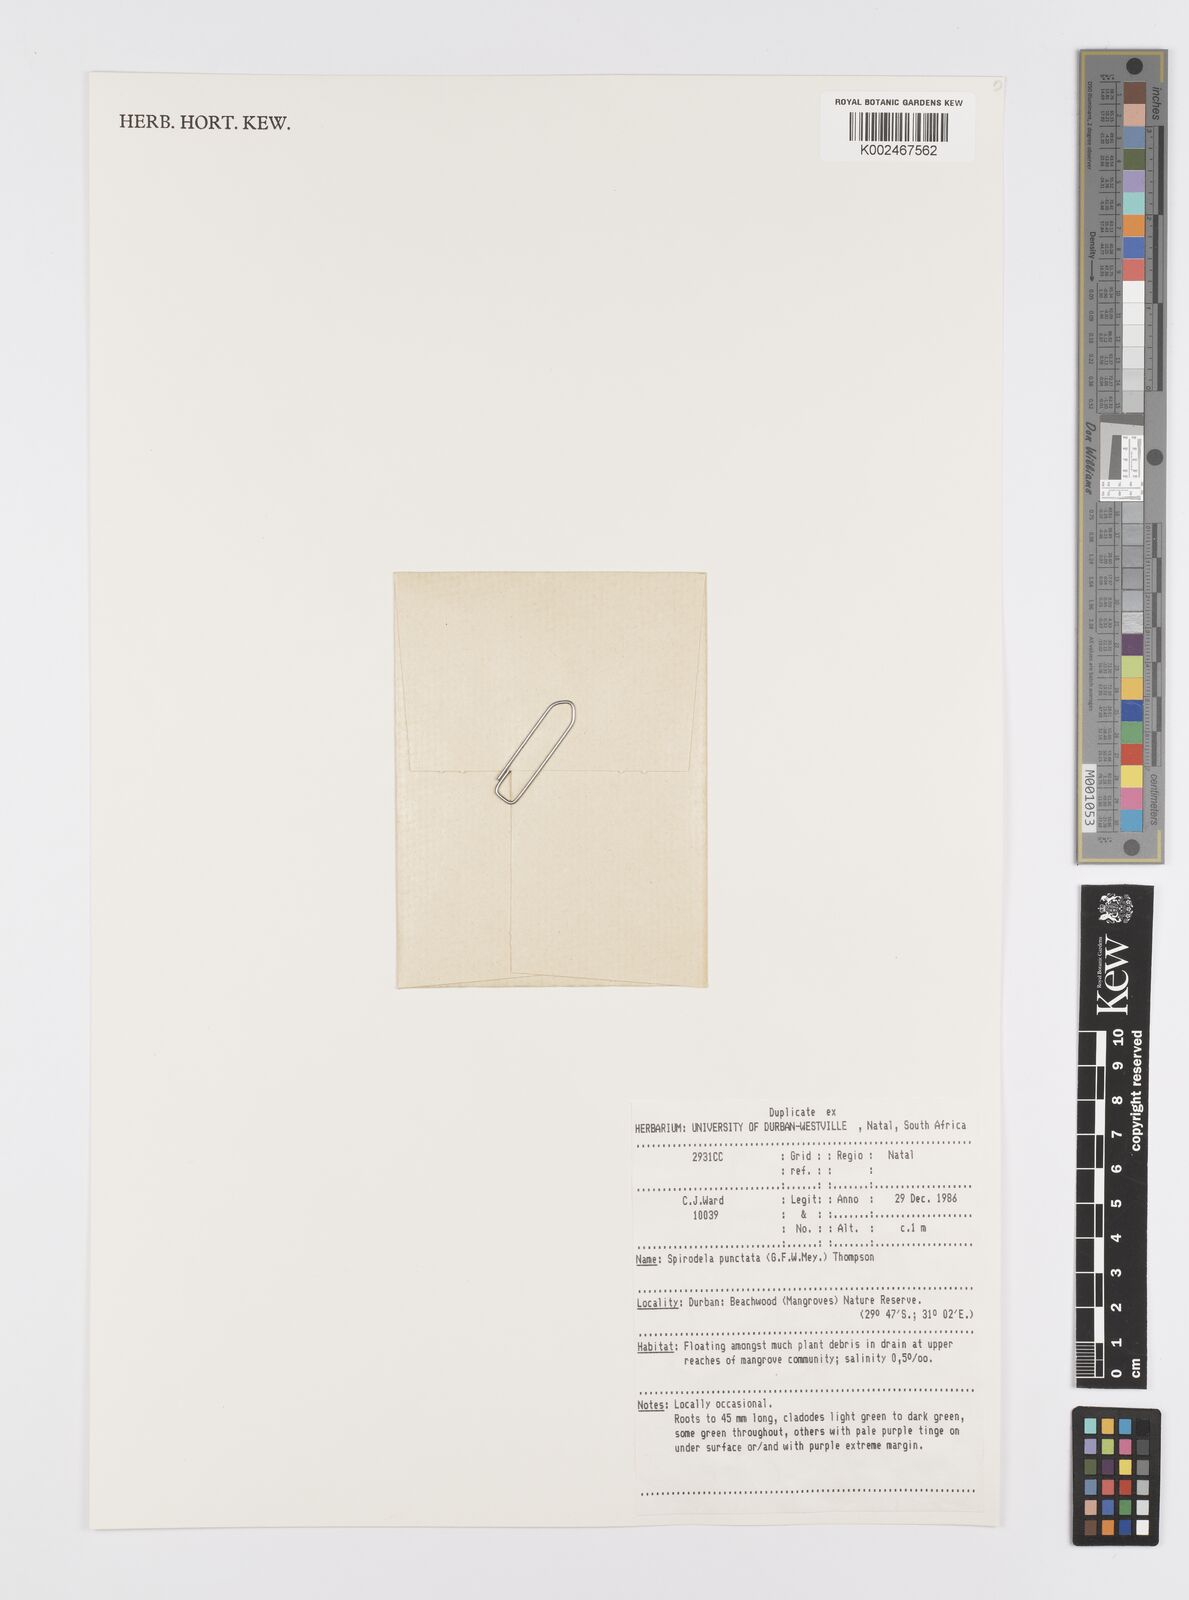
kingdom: Plantae
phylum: Tracheophyta
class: Liliopsida
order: Alismatales
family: Araceae
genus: Spirodela
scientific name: Spirodela punctata
